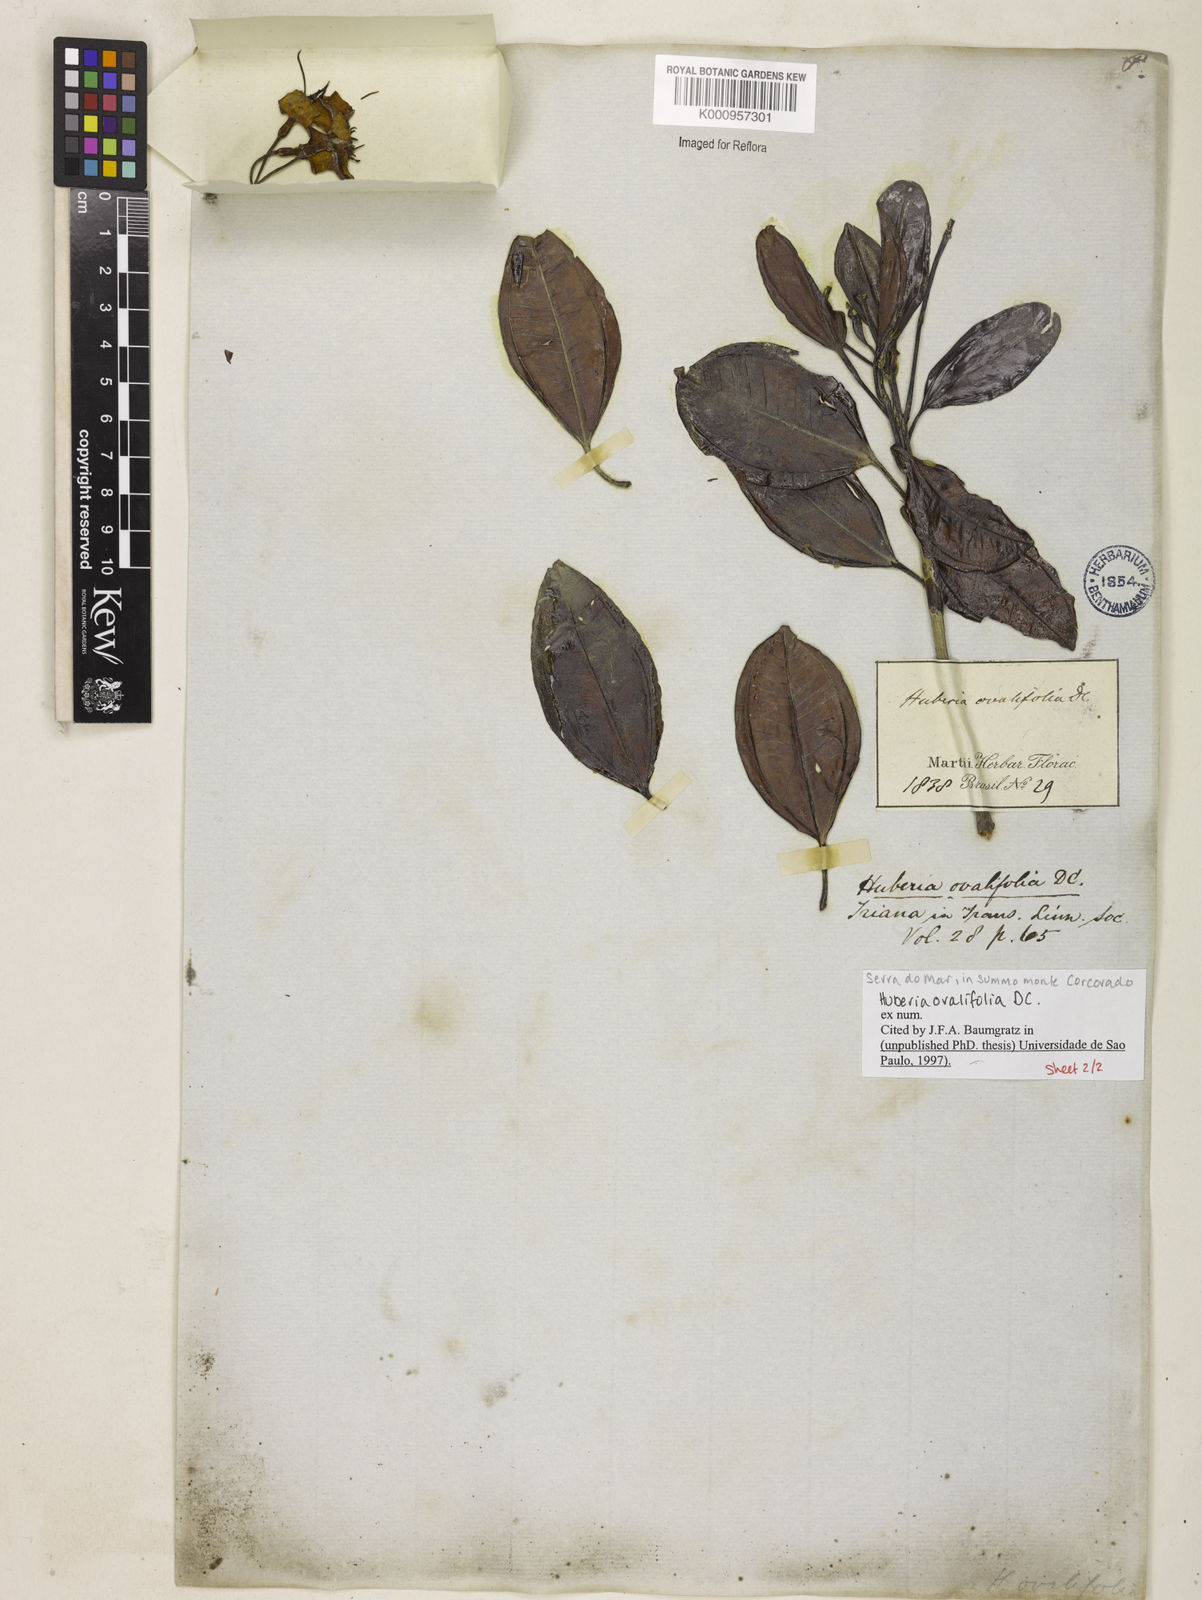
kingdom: Plantae
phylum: Tracheophyta
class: Magnoliopsida
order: Myrtales
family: Melastomataceae
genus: Huberia
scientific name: Huberia ovalifolia
